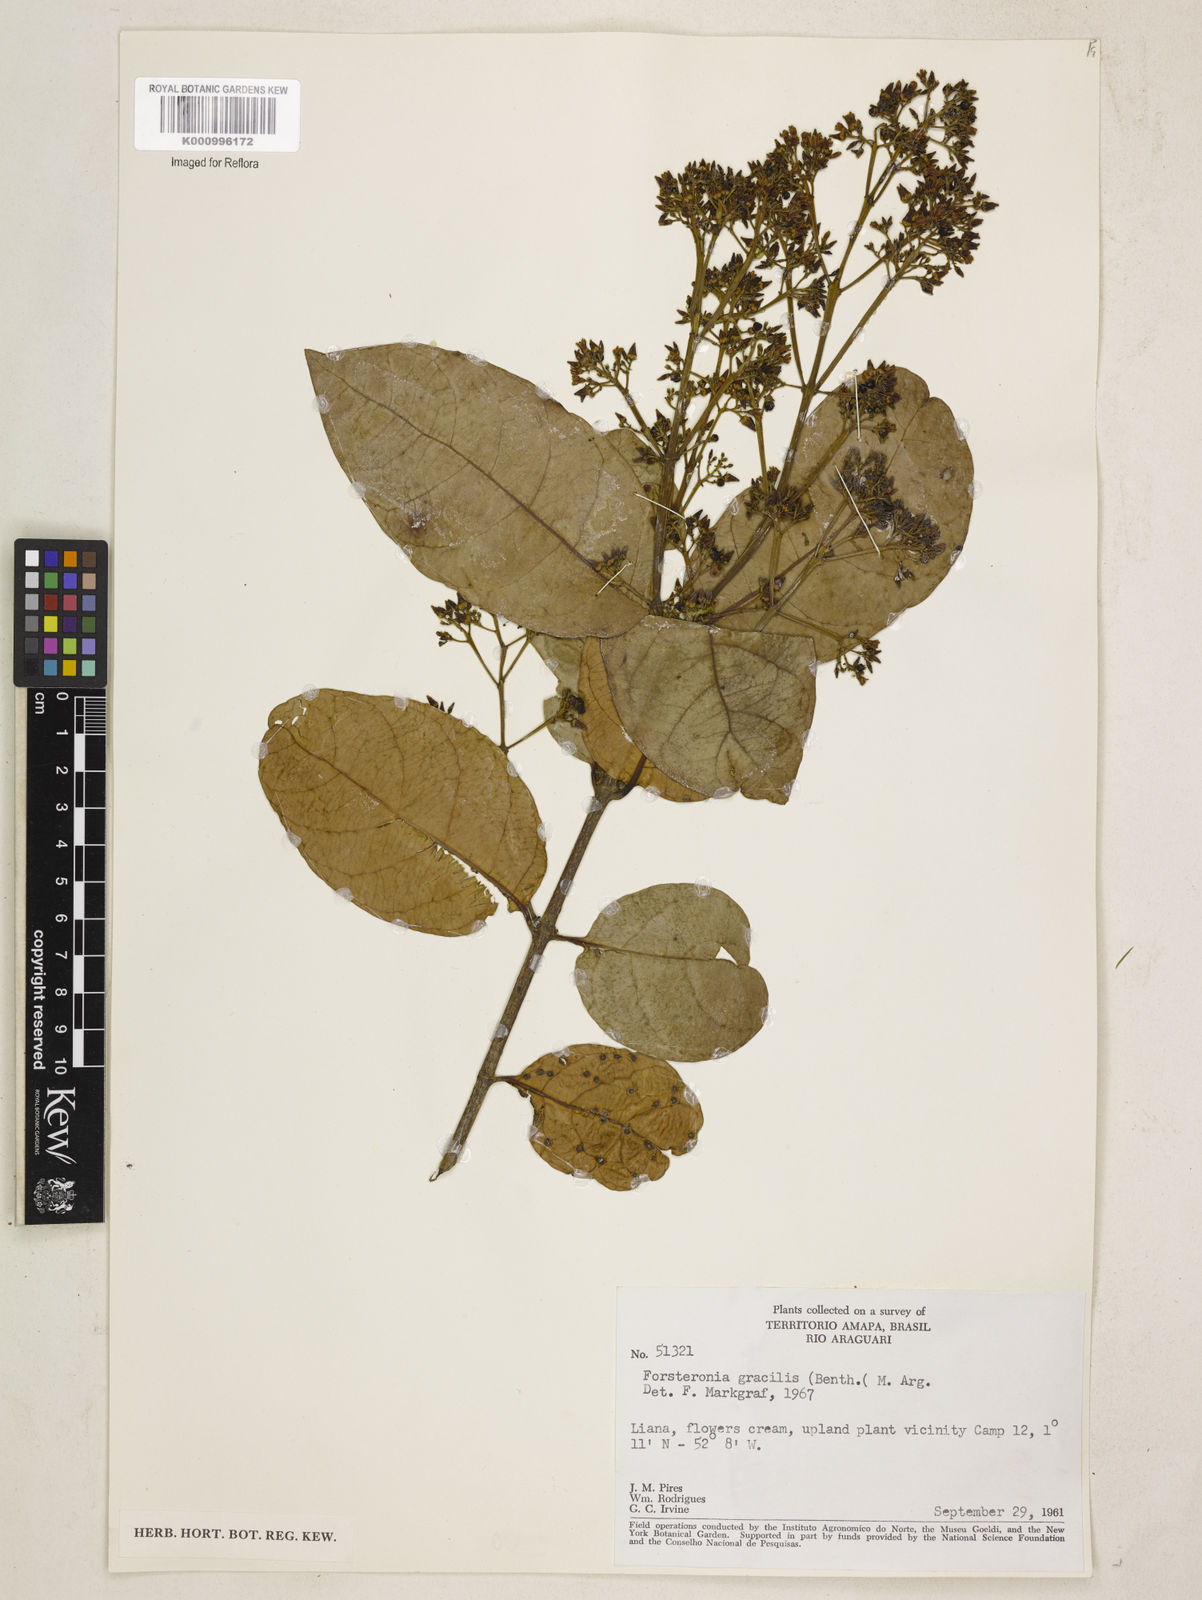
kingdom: Plantae
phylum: Tracheophyta
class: Magnoliopsida
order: Gentianales
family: Apocynaceae
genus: Forsteronia
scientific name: Forsteronia
